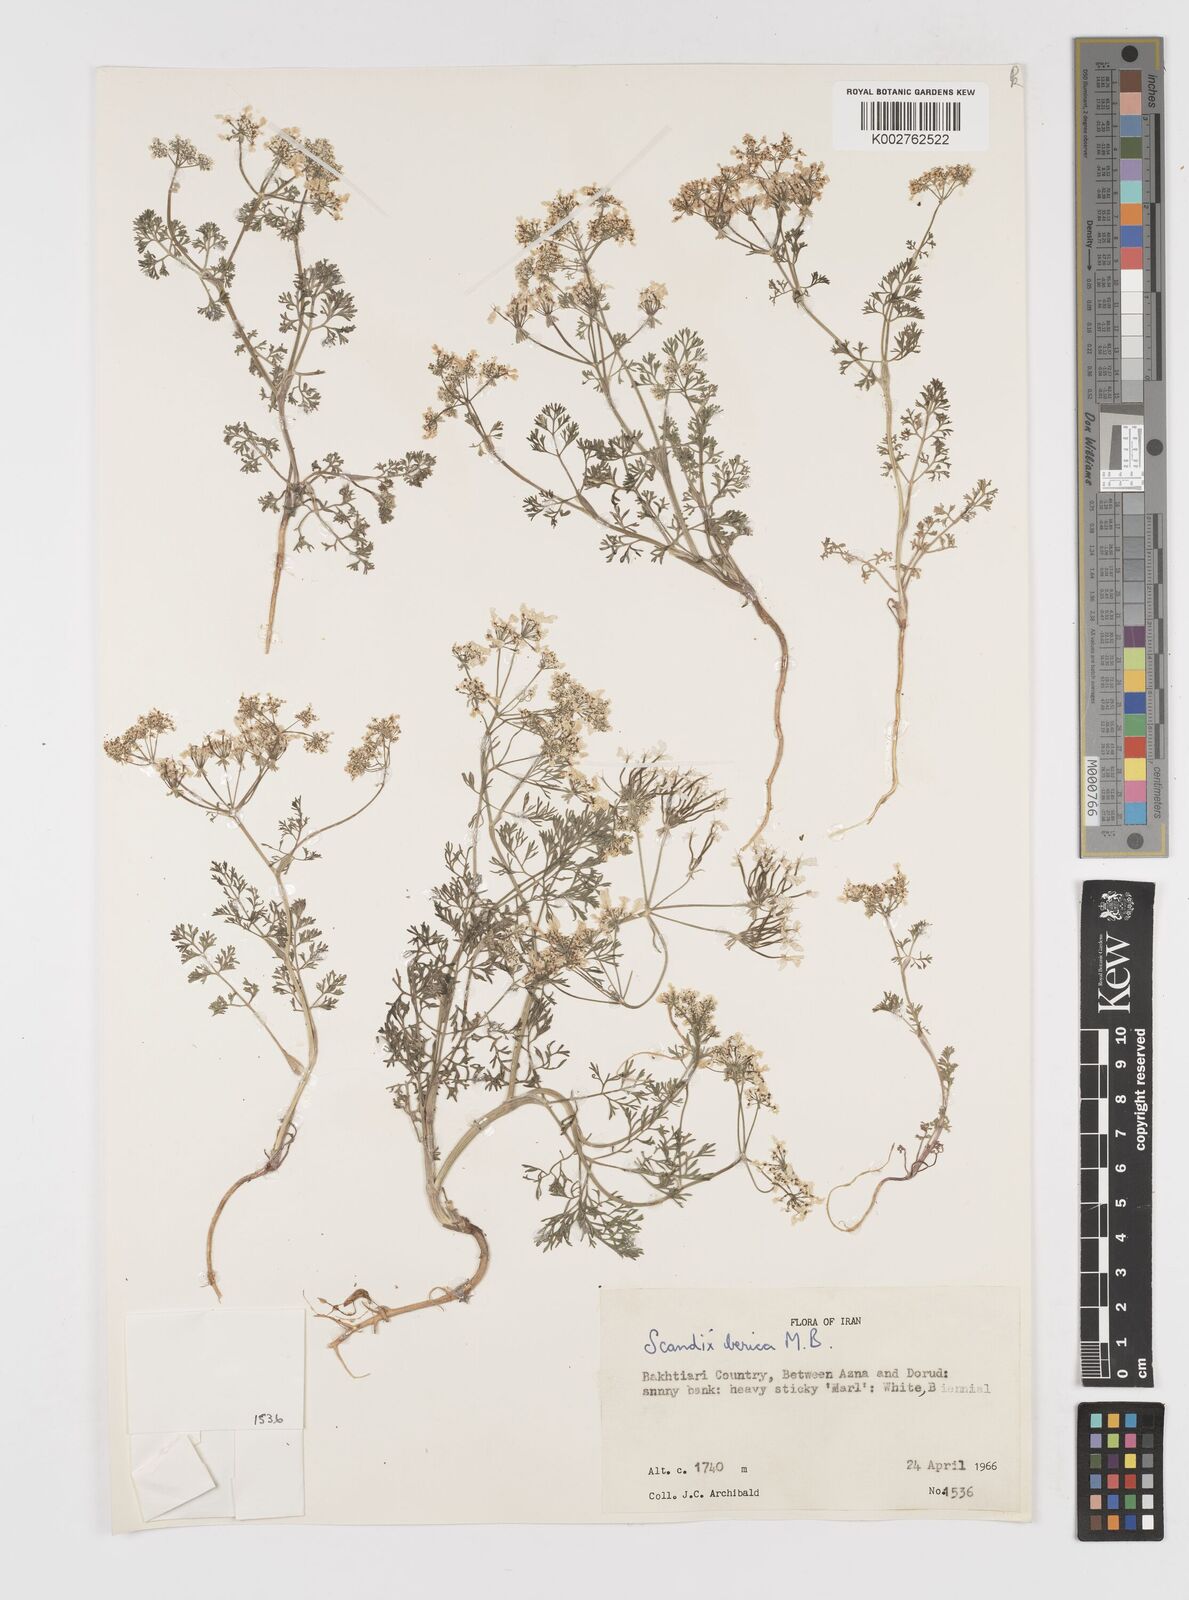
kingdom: Plantae
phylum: Tracheophyta
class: Magnoliopsida
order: Apiales
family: Apiaceae
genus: Scandix
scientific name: Scandix iberica
